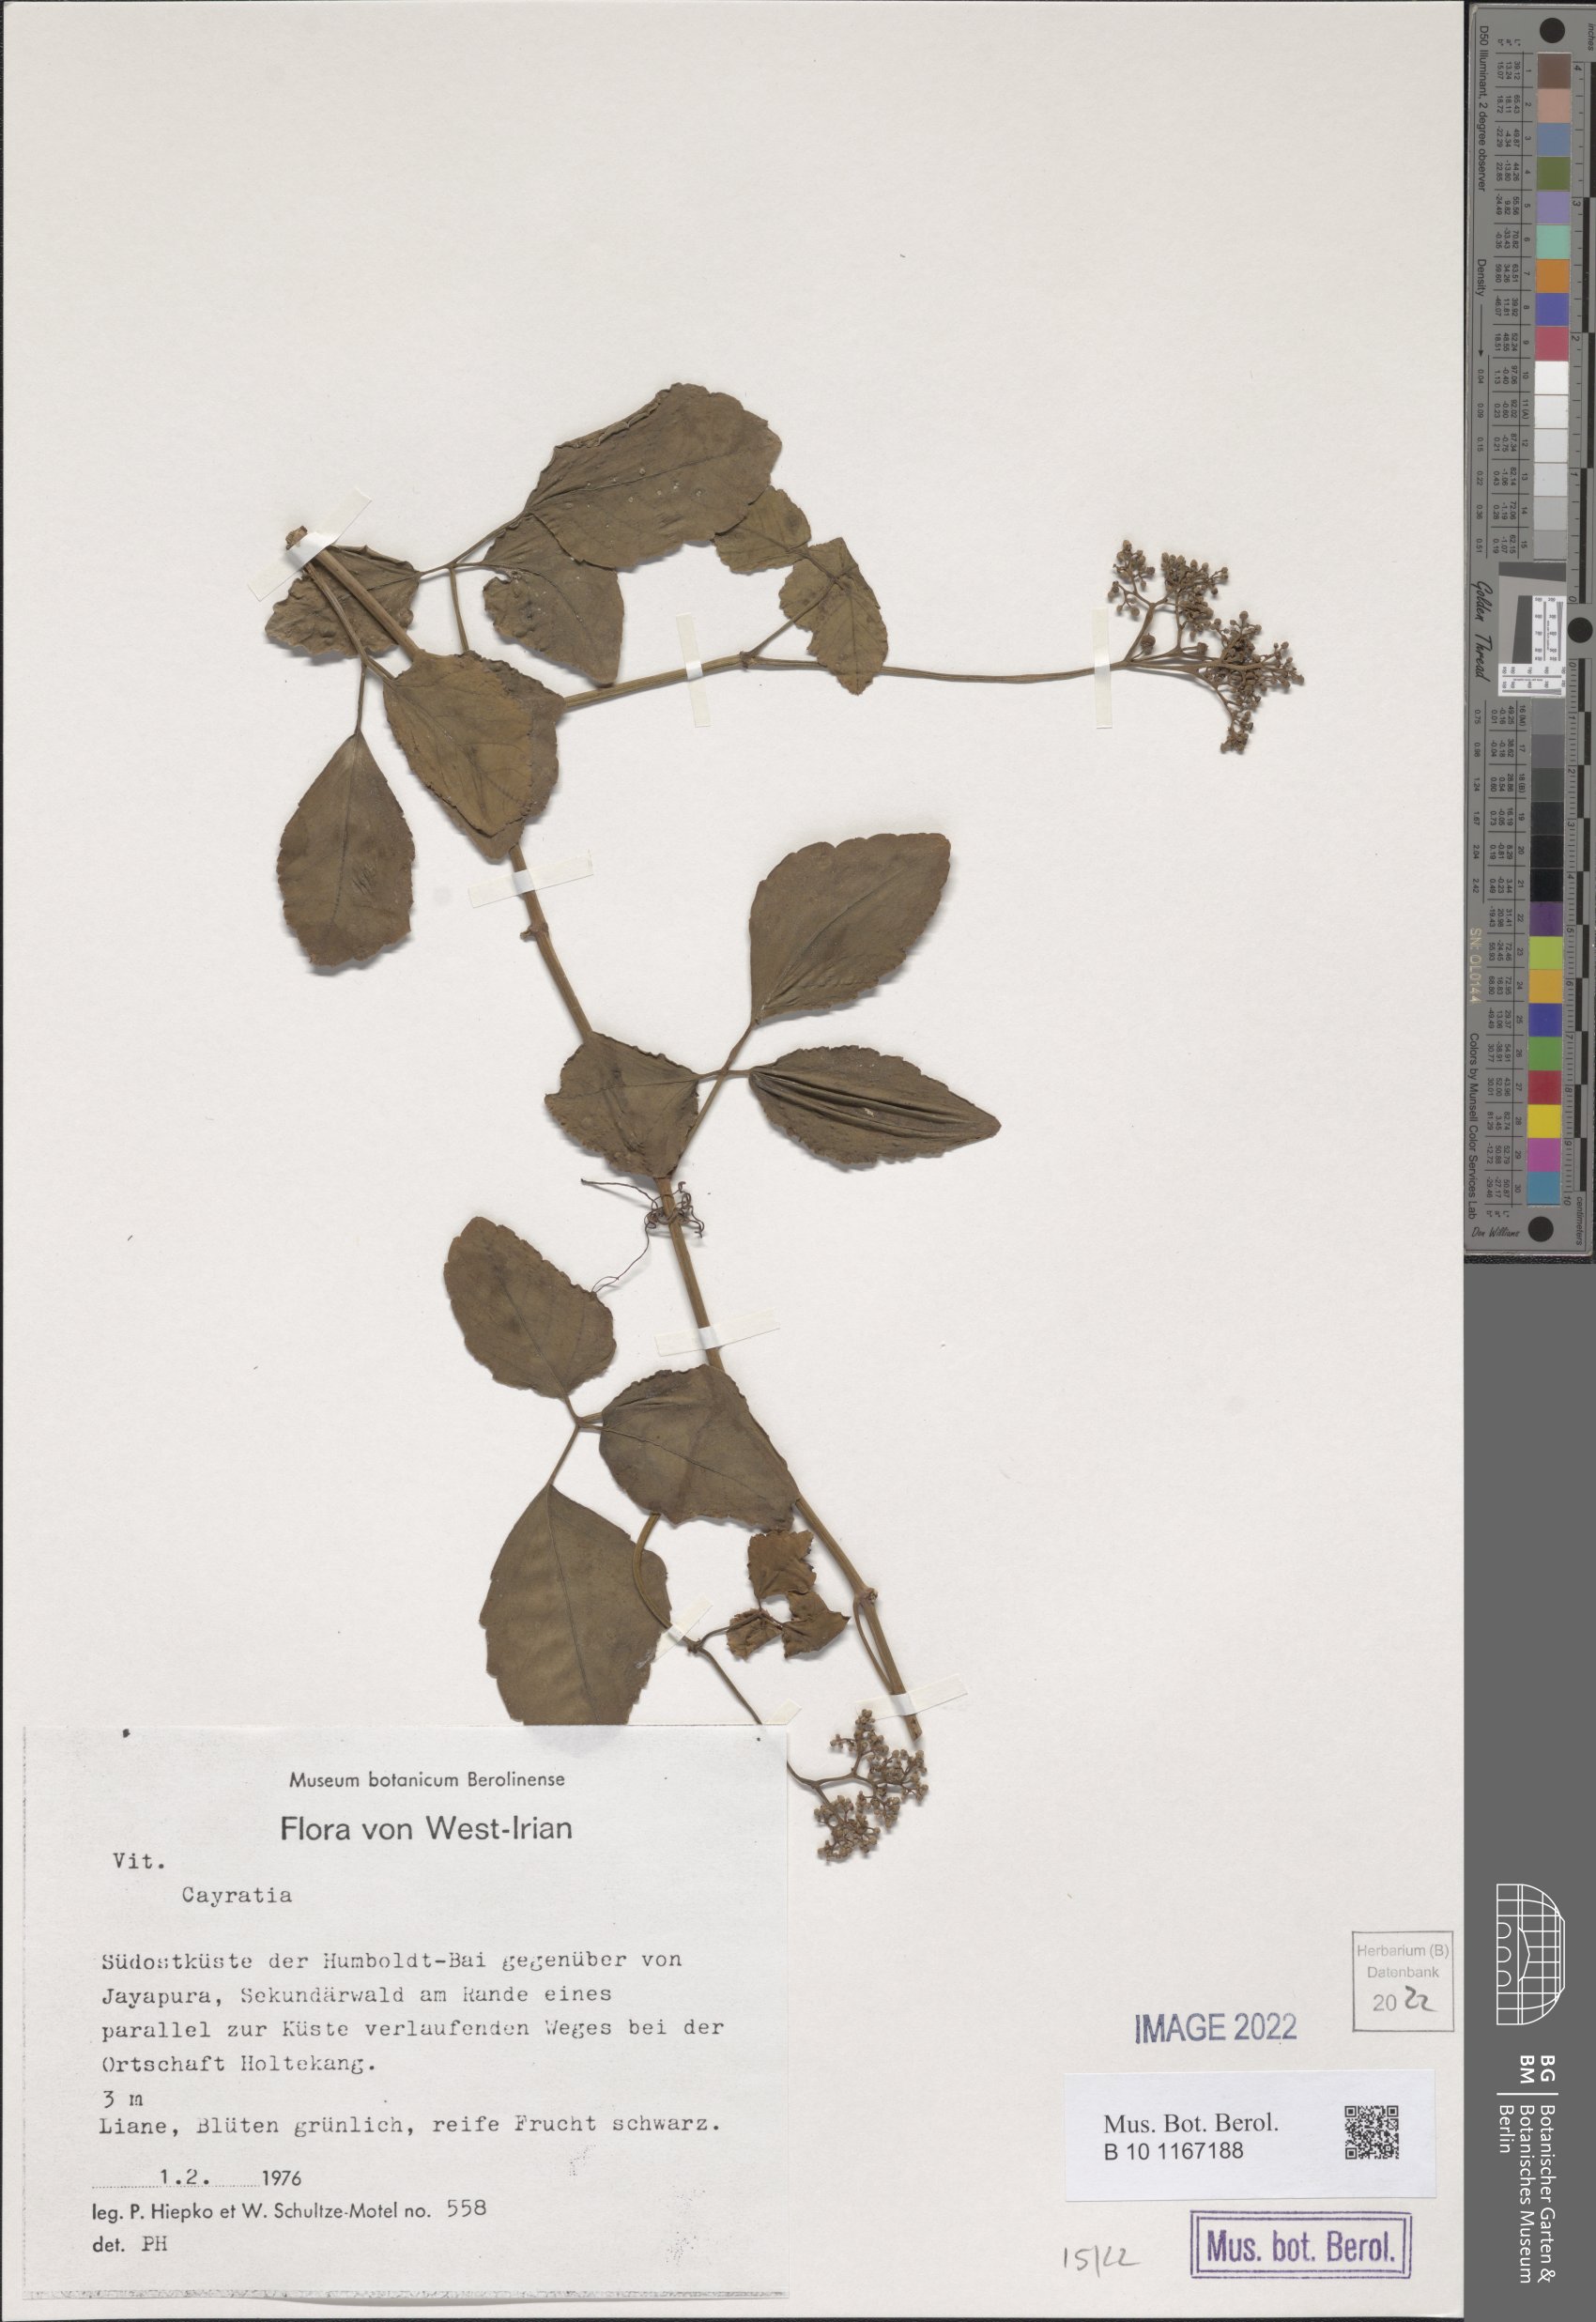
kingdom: Plantae
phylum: Tracheophyta
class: Magnoliopsida
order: Vitales
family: Vitaceae
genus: Cayratia
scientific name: Cayratia
